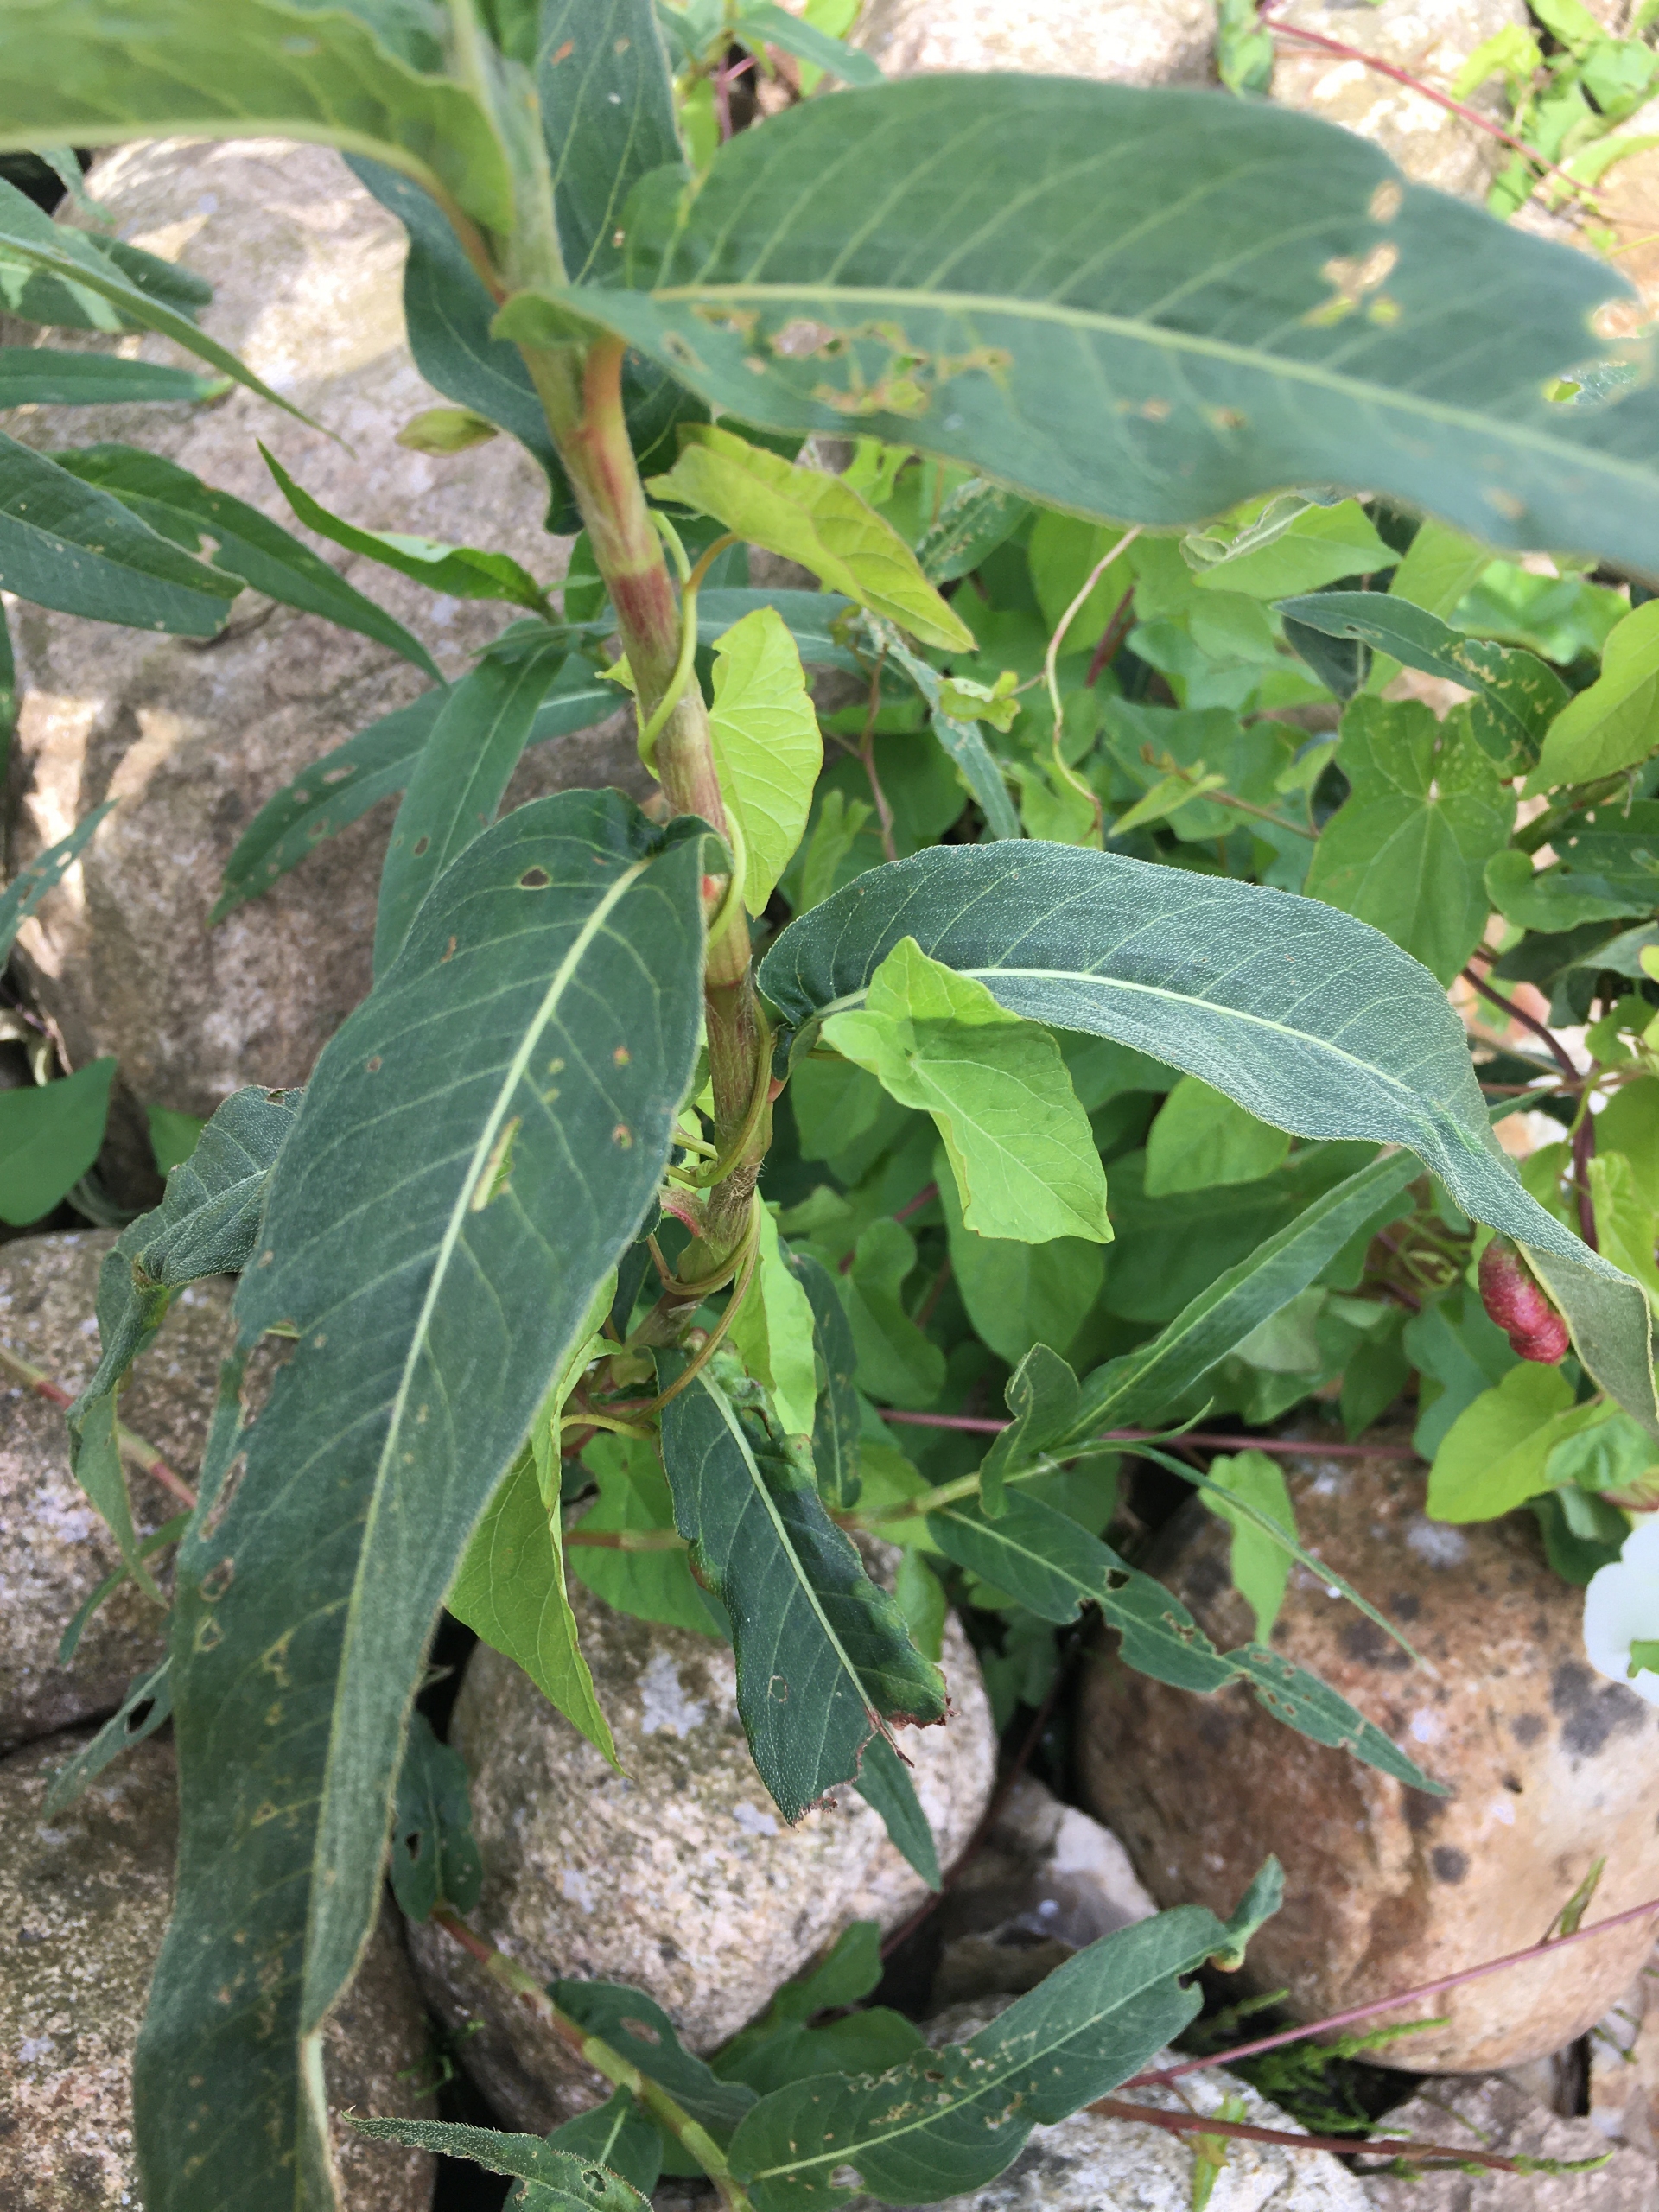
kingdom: Animalia
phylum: Arthropoda
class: Insecta
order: Diptera
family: Cecidomyiidae
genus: Wachtliella
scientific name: Wachtliella persicariae
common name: Pileurtgalmyg
